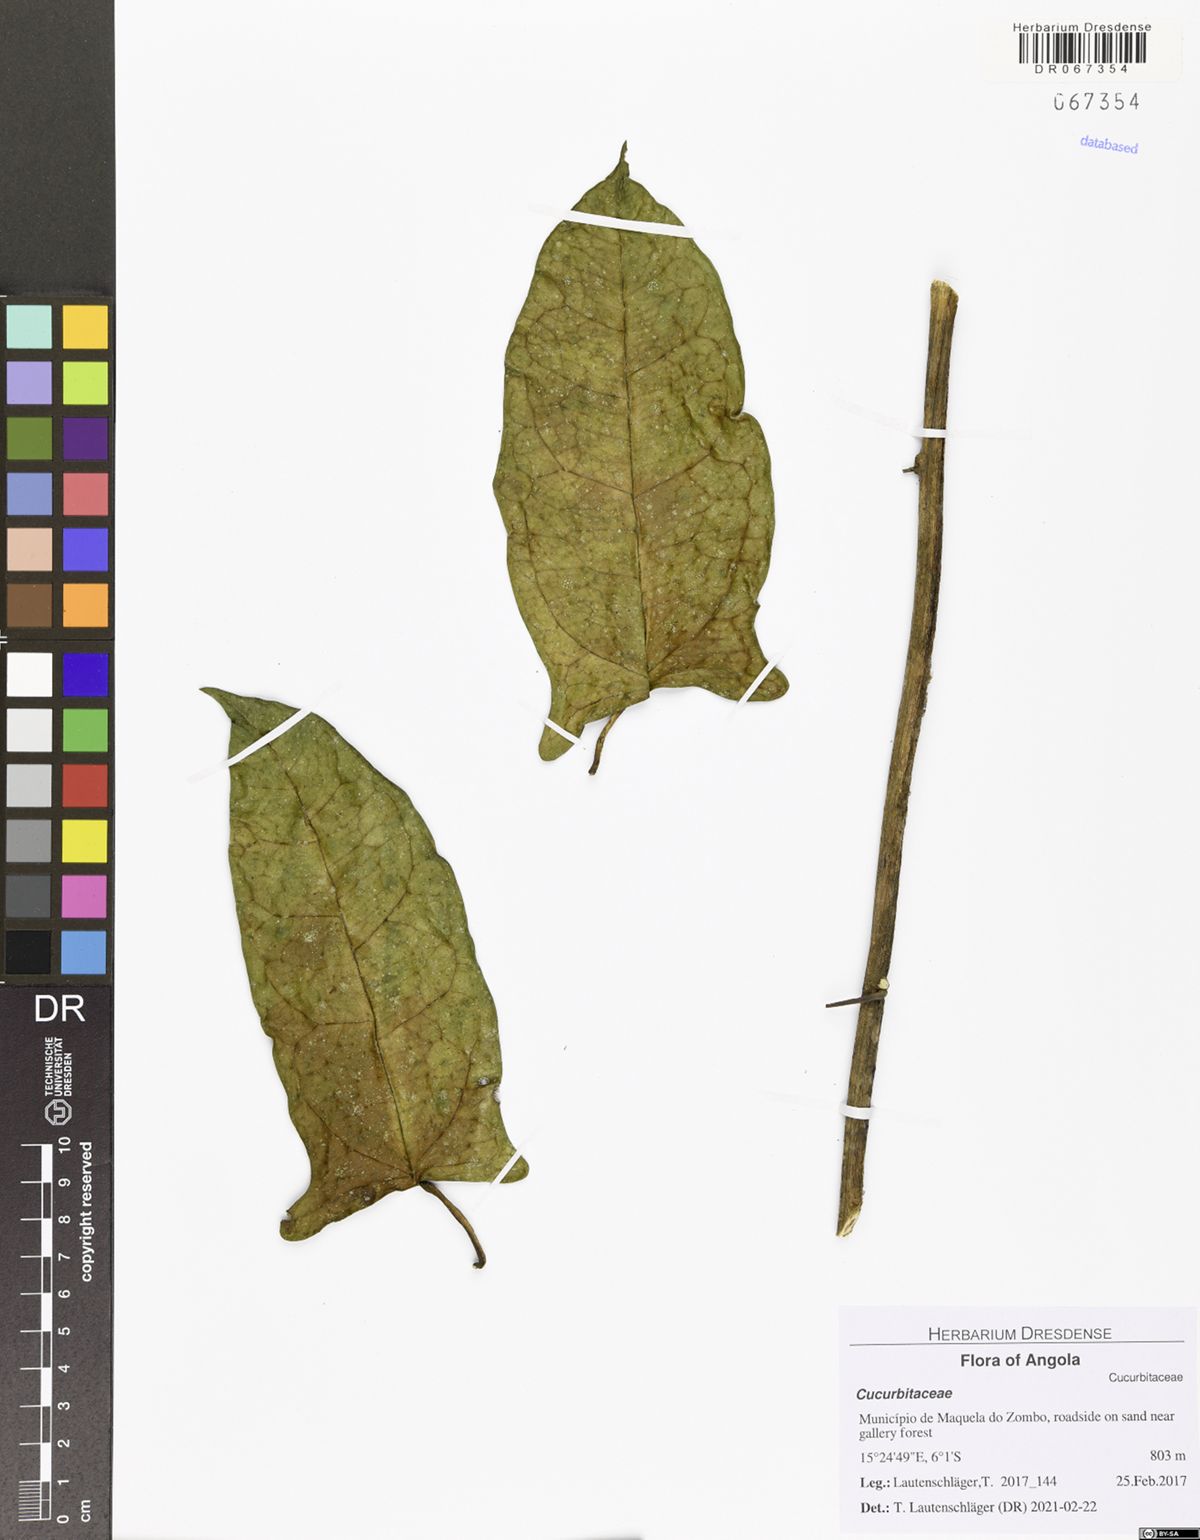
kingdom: Plantae
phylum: Tracheophyta
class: Magnoliopsida
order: Cucurbitales
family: Cucurbitaceae
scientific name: Cucurbitaceae
